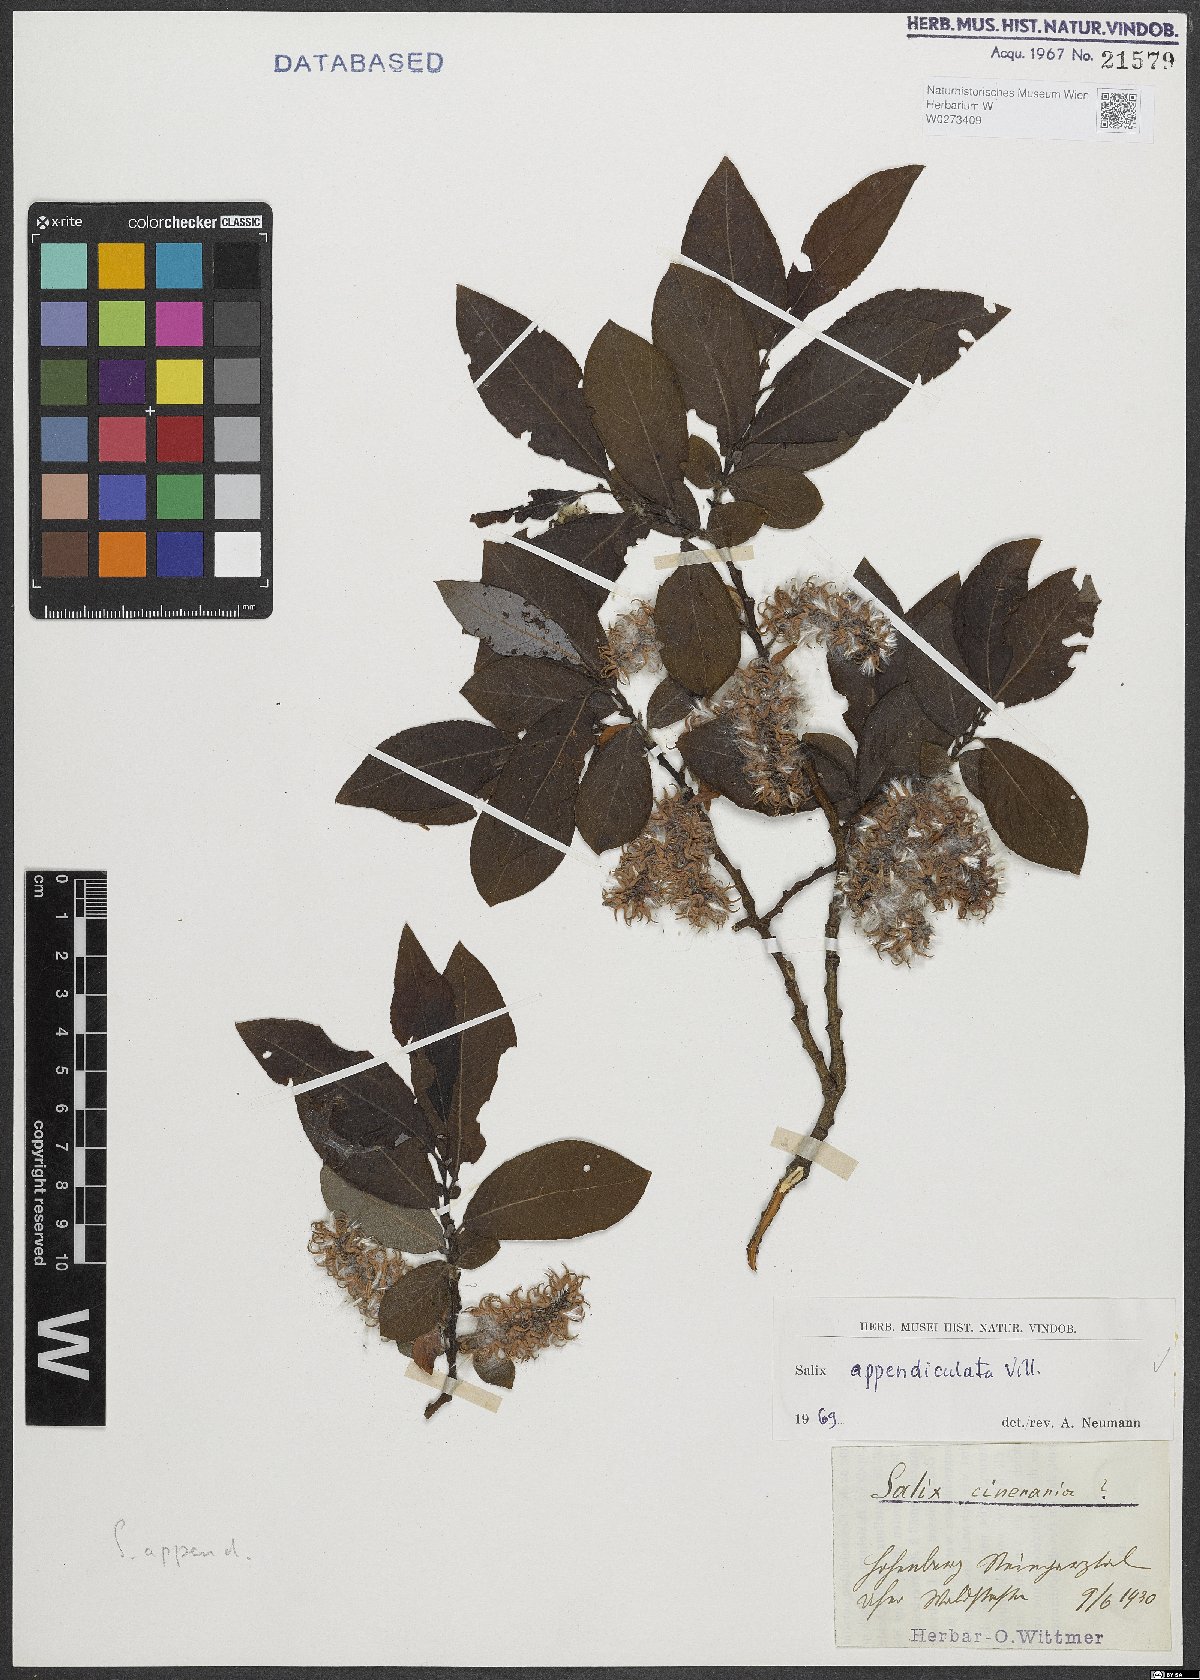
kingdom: Plantae
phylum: Tracheophyta
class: Magnoliopsida
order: Malpighiales
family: Salicaceae
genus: Salix
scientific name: Salix appendiculata
